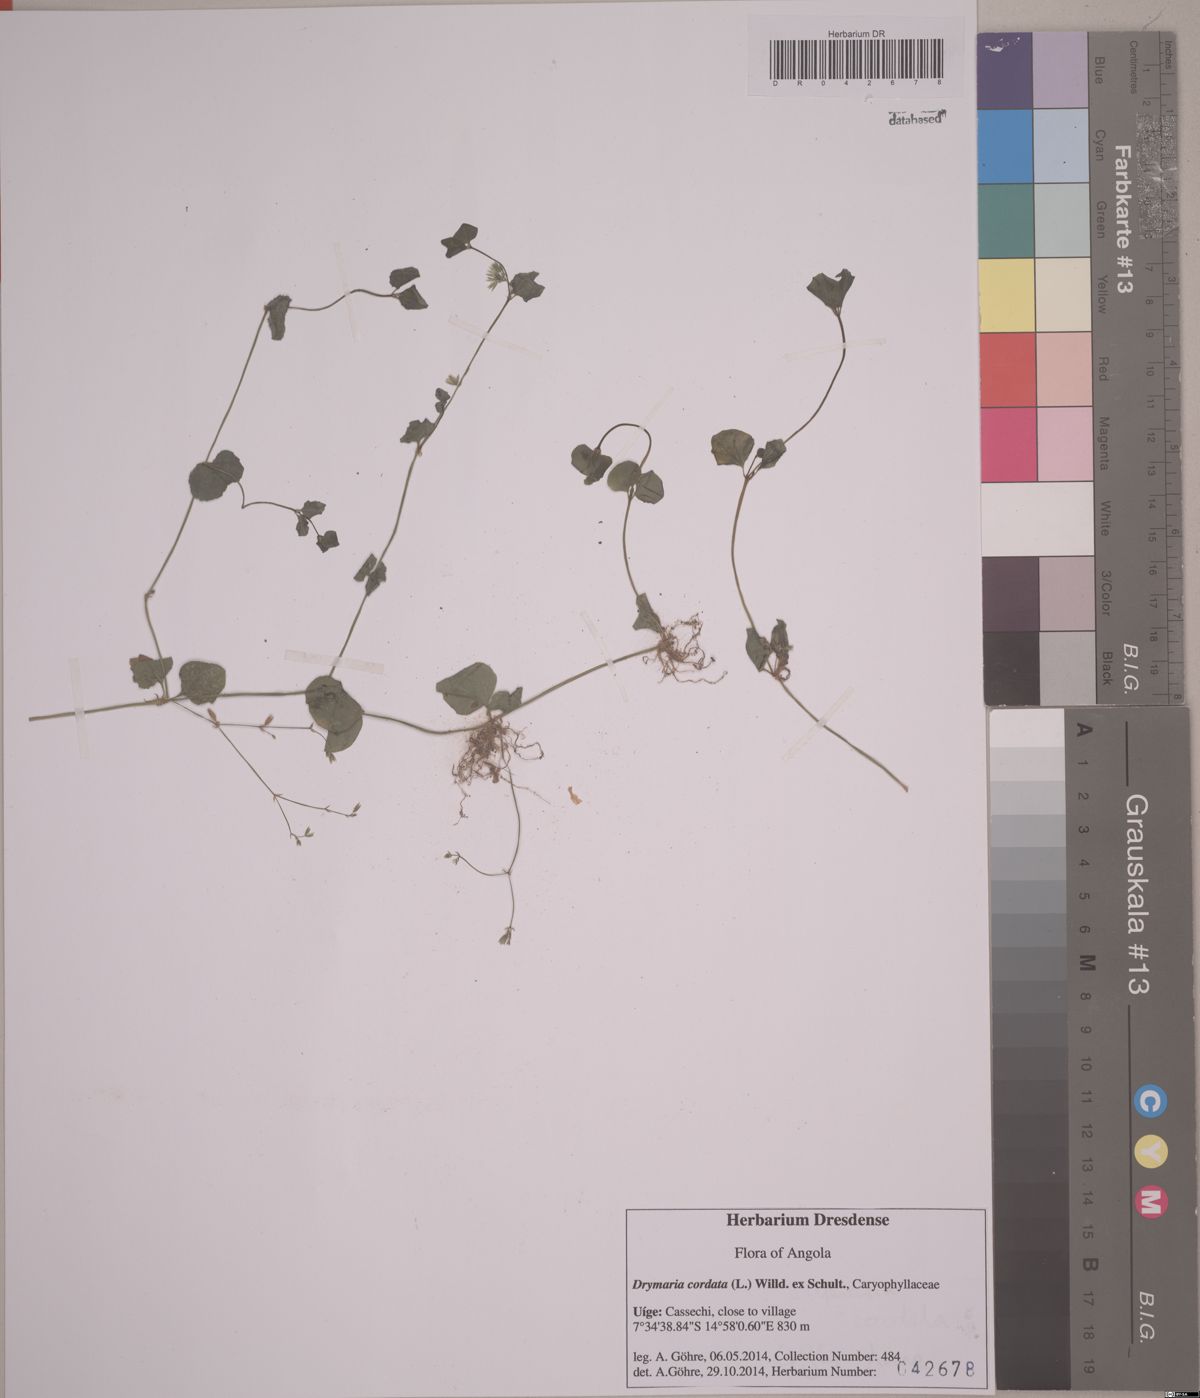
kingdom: Plantae
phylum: Tracheophyta
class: Magnoliopsida
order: Caryophyllales
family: Caryophyllaceae
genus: Drymaria
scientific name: Drymaria cordata
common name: Whitesnow
